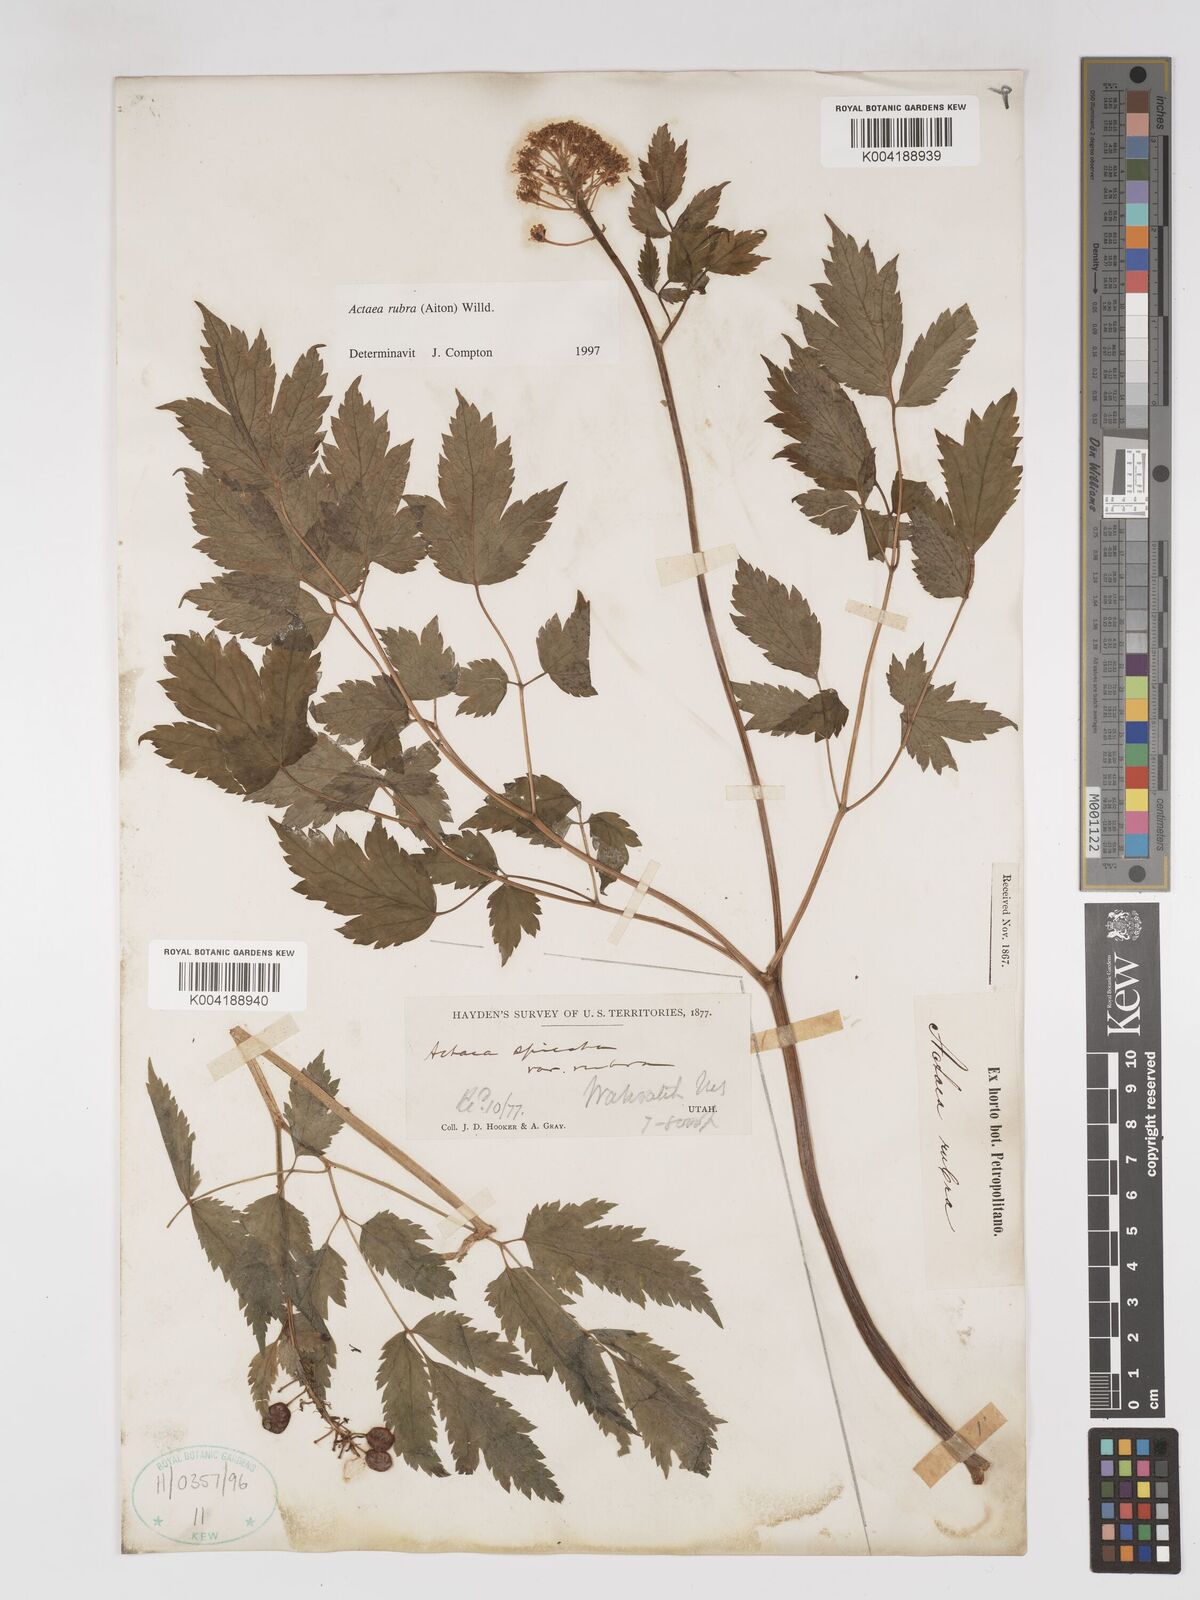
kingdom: Plantae
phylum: Tracheophyta
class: Magnoliopsida
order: Ranunculales
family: Ranunculaceae
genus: Actaea
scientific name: Actaea rubra
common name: Red baneberry
